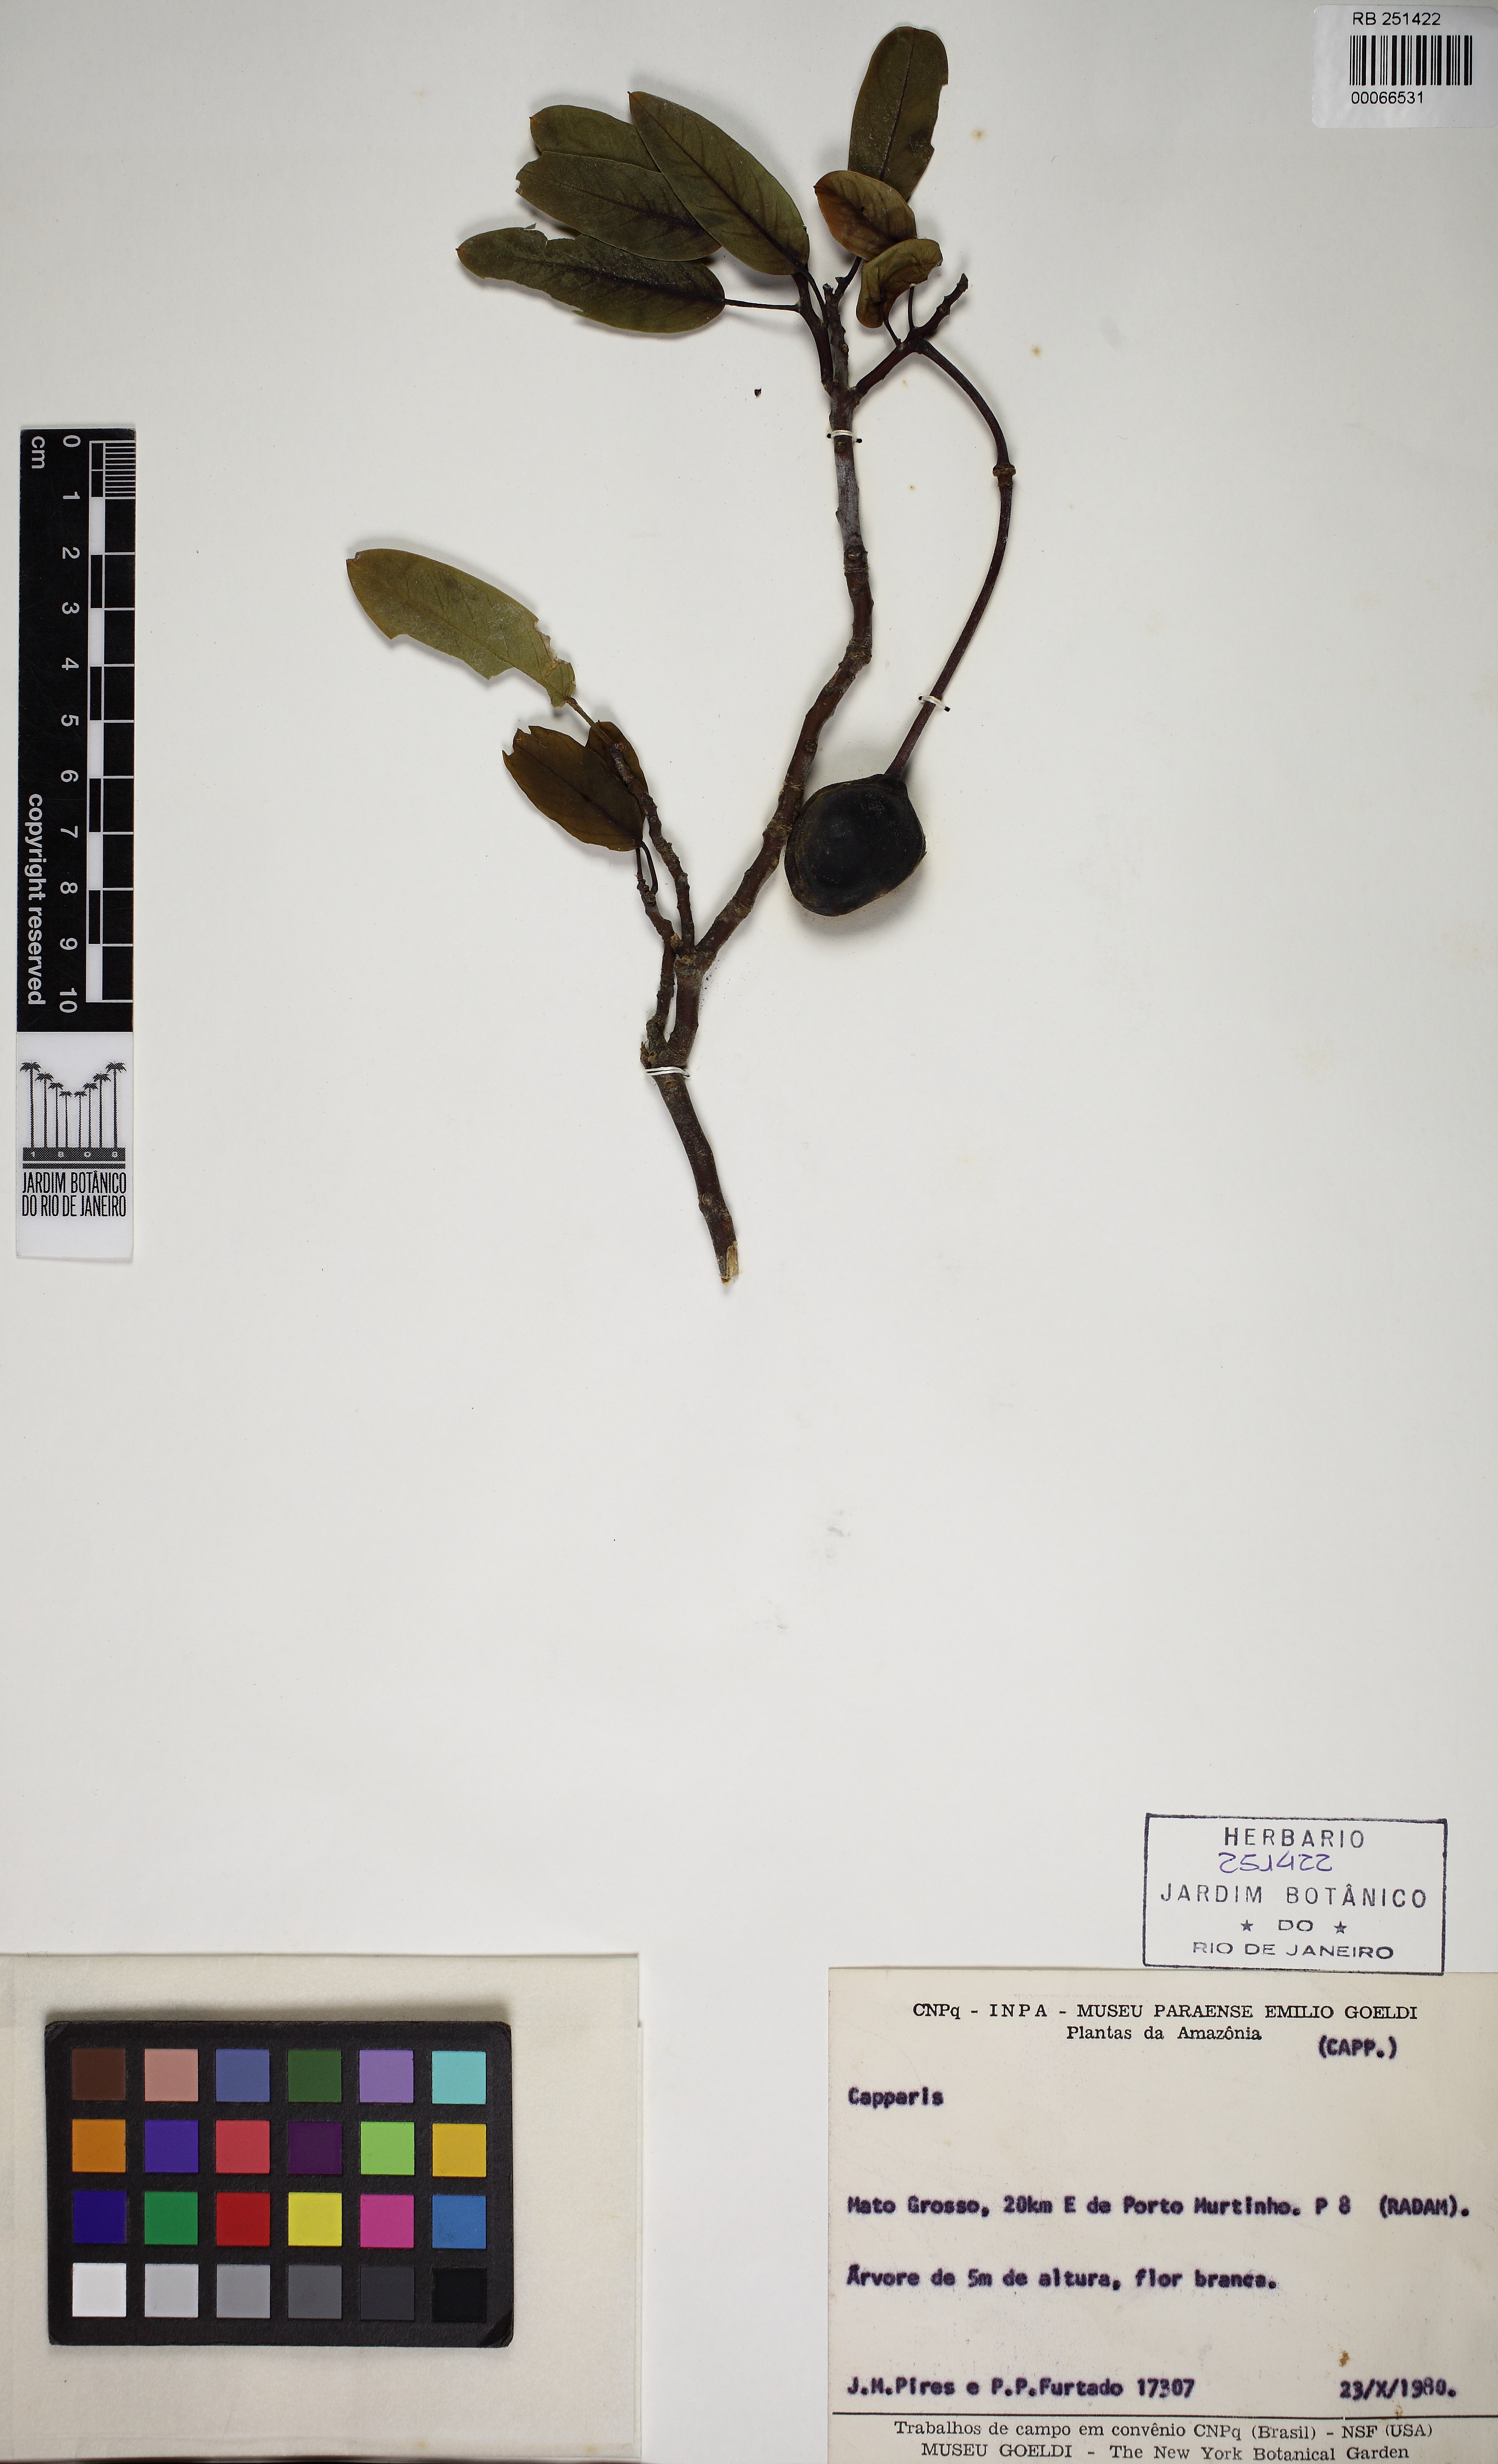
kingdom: Plantae
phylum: Tracheophyta
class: Magnoliopsida
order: Brassicales
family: Capparaceae
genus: Anisocapparis
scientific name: Anisocapparis speciosa
